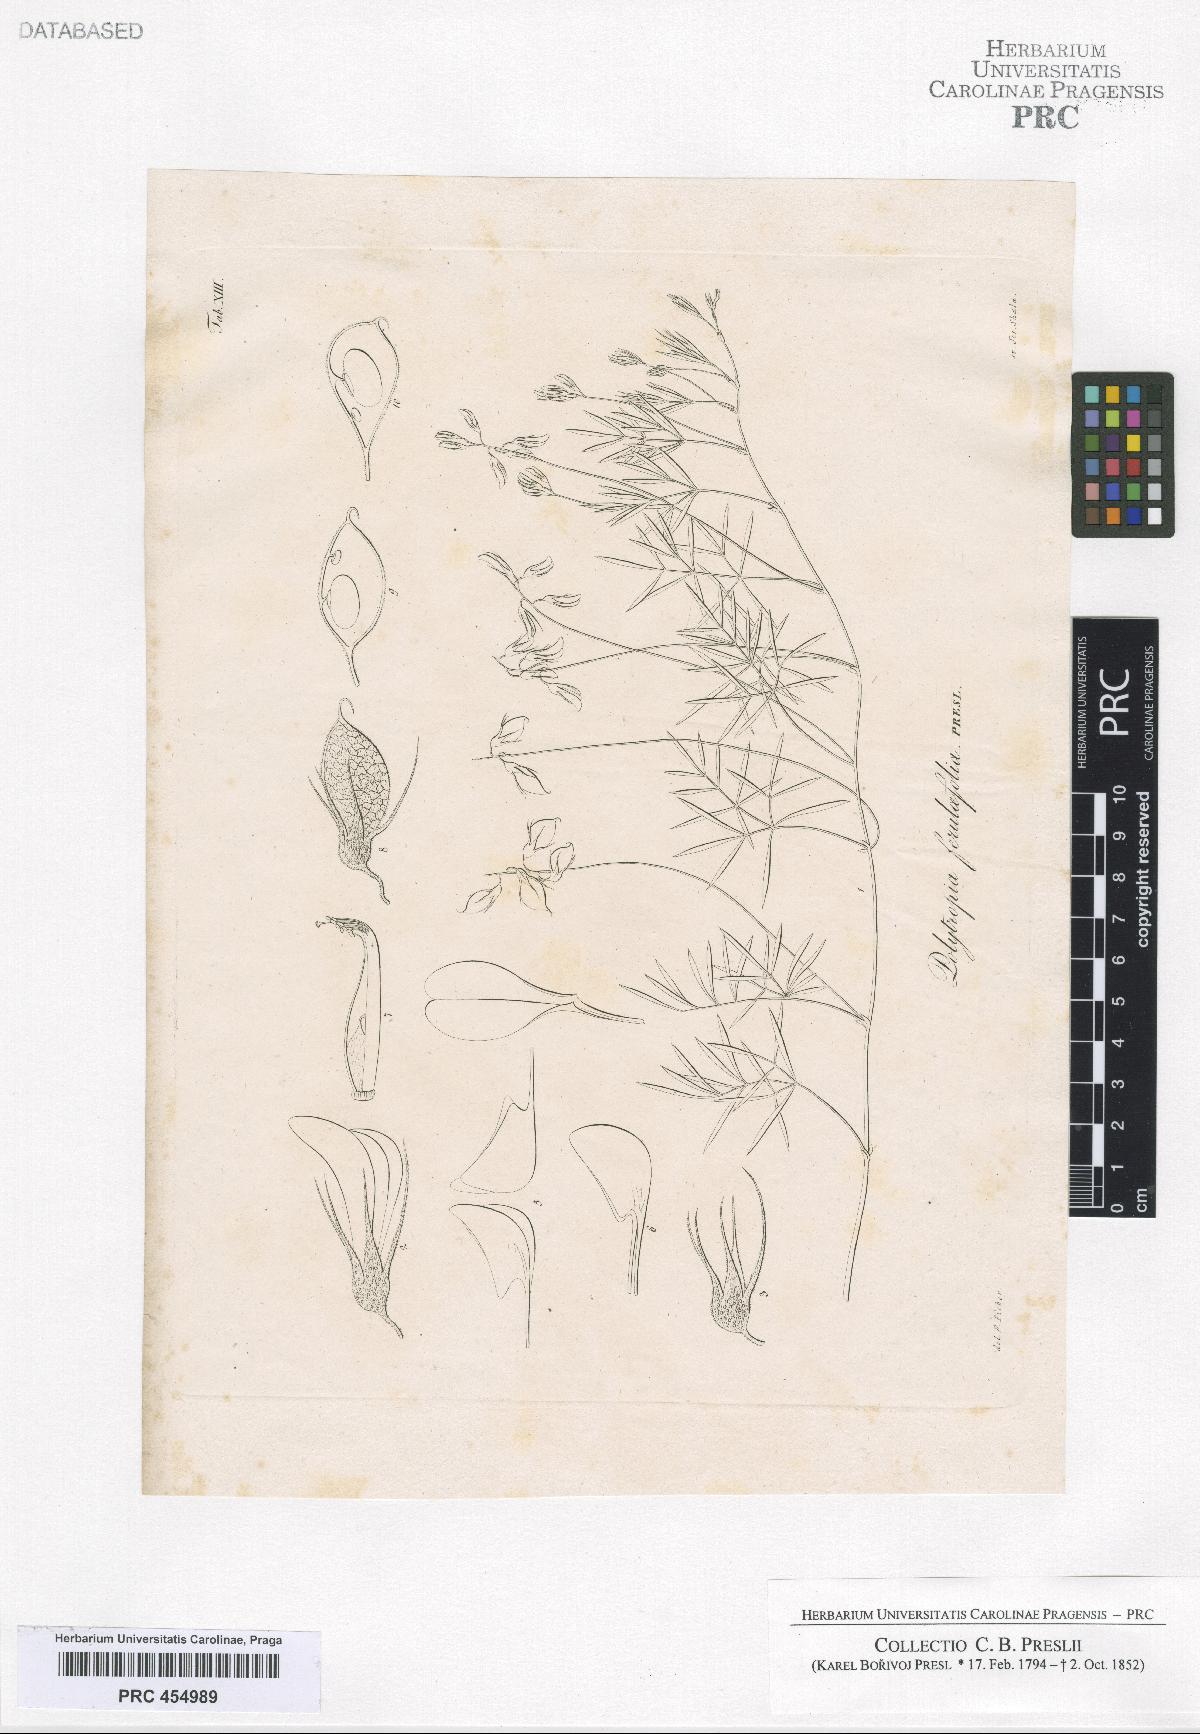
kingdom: Plantae
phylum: Tracheophyta
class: Magnoliopsida
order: Fabales
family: Fabaceae
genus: Rhynchosia
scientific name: Rhynchosia ferulifolia
